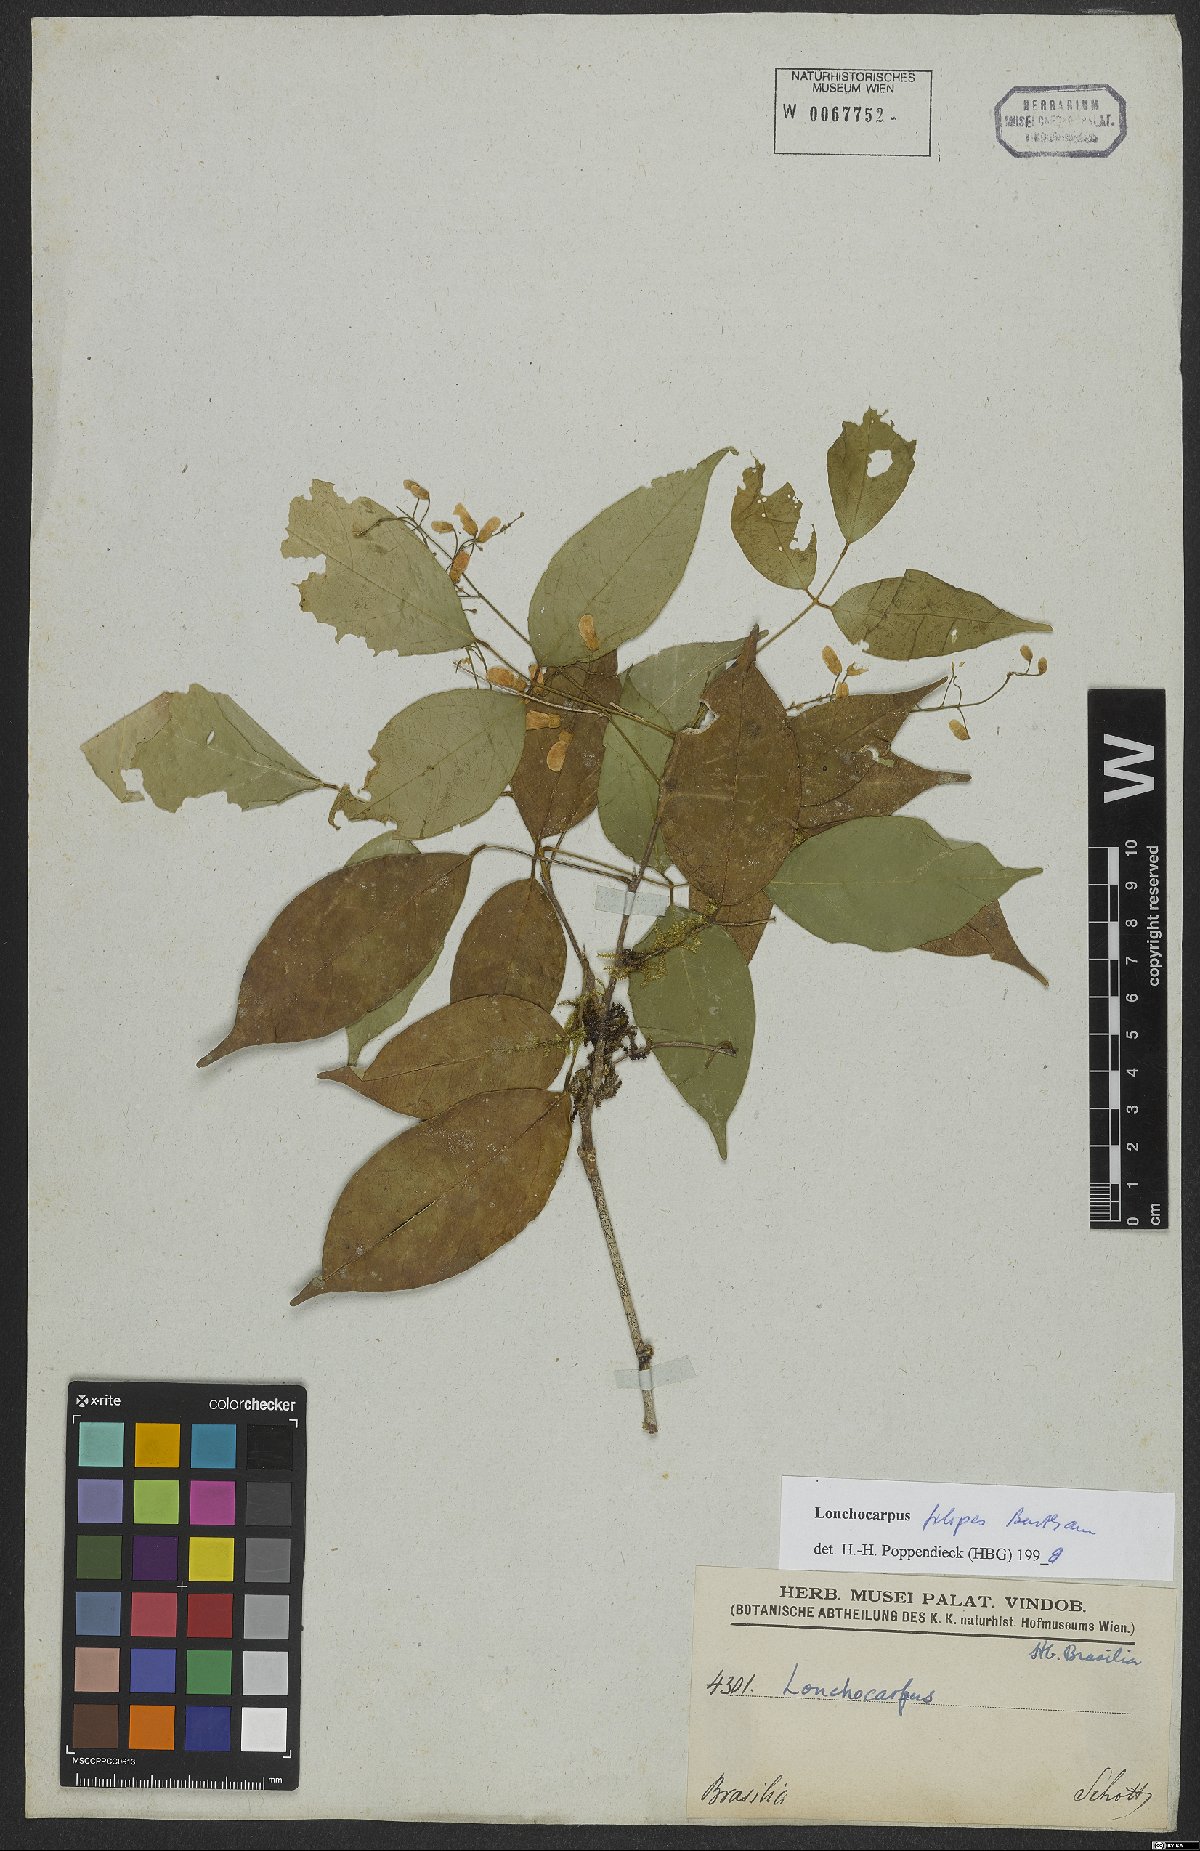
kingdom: Plantae
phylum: Tracheophyta
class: Magnoliopsida
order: Fabales
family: Fabaceae
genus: Muellera
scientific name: Muellera filipes
